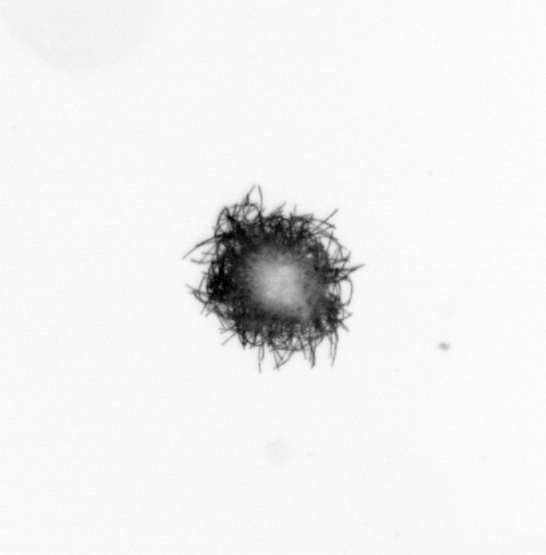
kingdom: Bacteria
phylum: Cyanobacteria
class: Cyanobacteriia
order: Cyanobacteriales
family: Microcoleaceae
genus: Trichodesmium
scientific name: Trichodesmium
